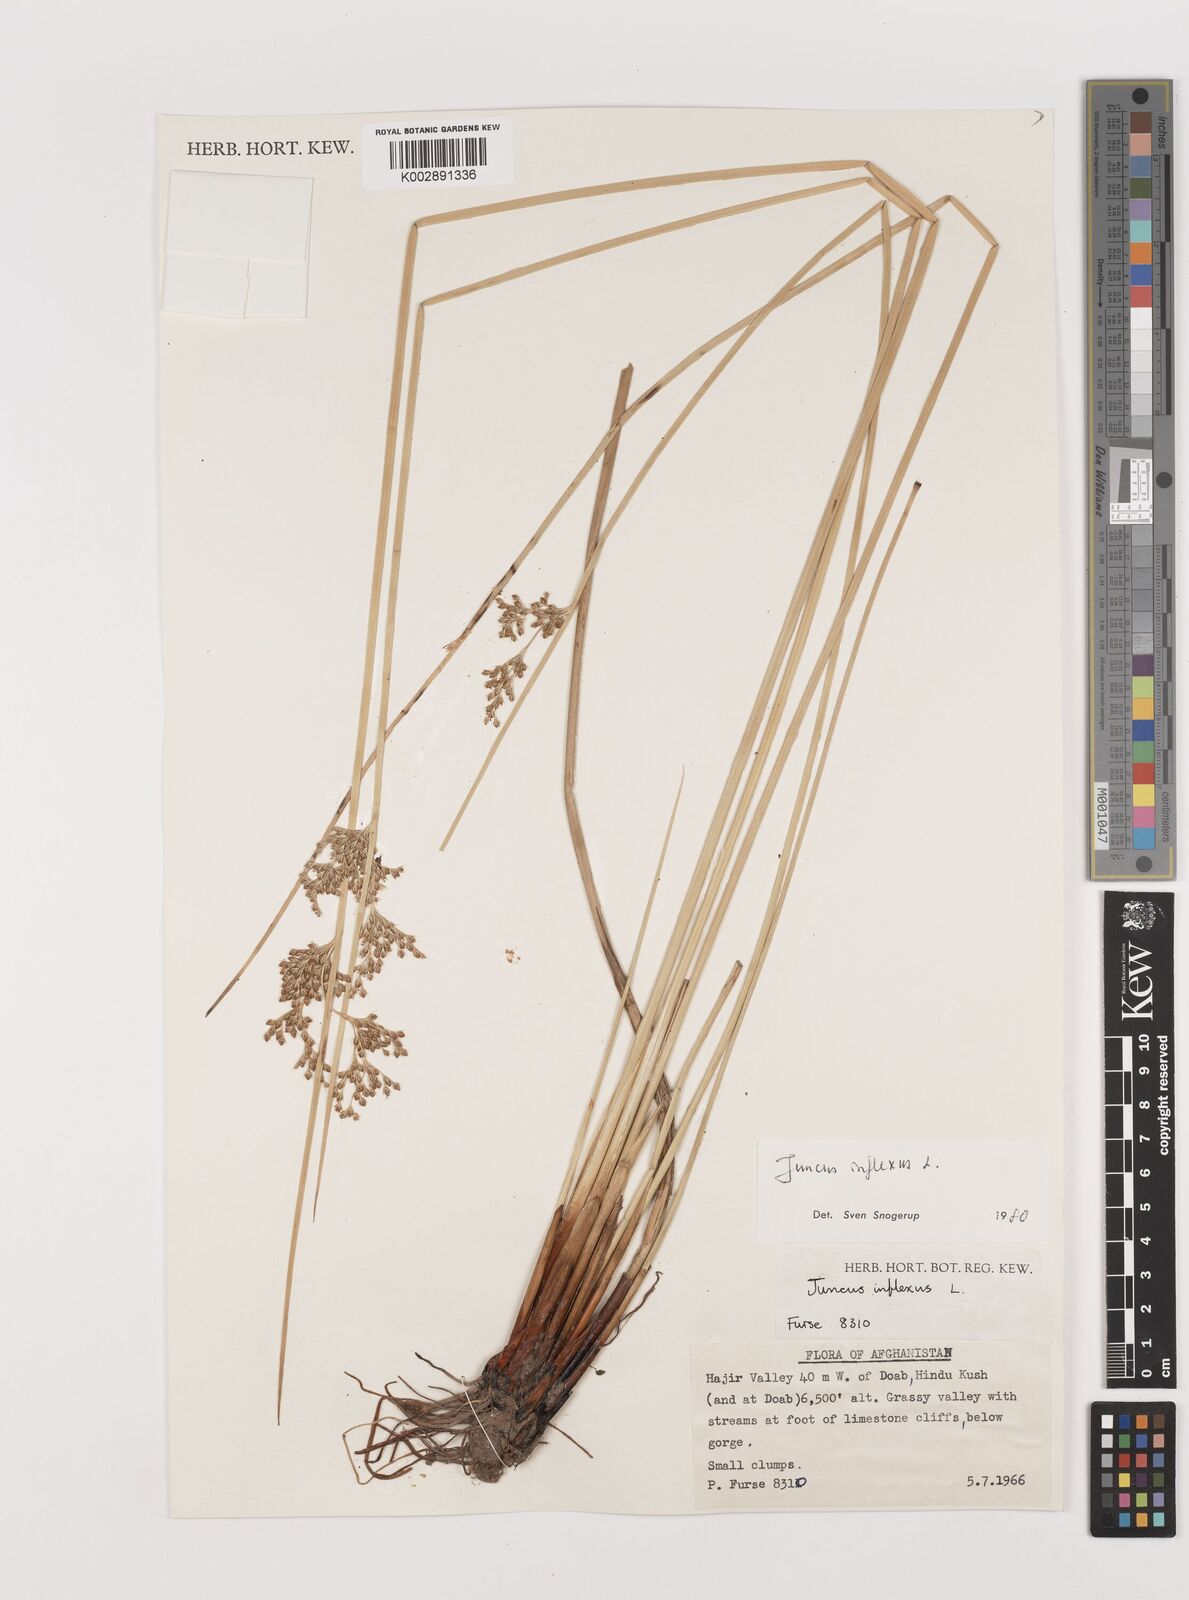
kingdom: Plantae
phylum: Tracheophyta
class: Liliopsida
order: Poales
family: Juncaceae
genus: Juncus
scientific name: Juncus inflexus
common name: Hard rush
